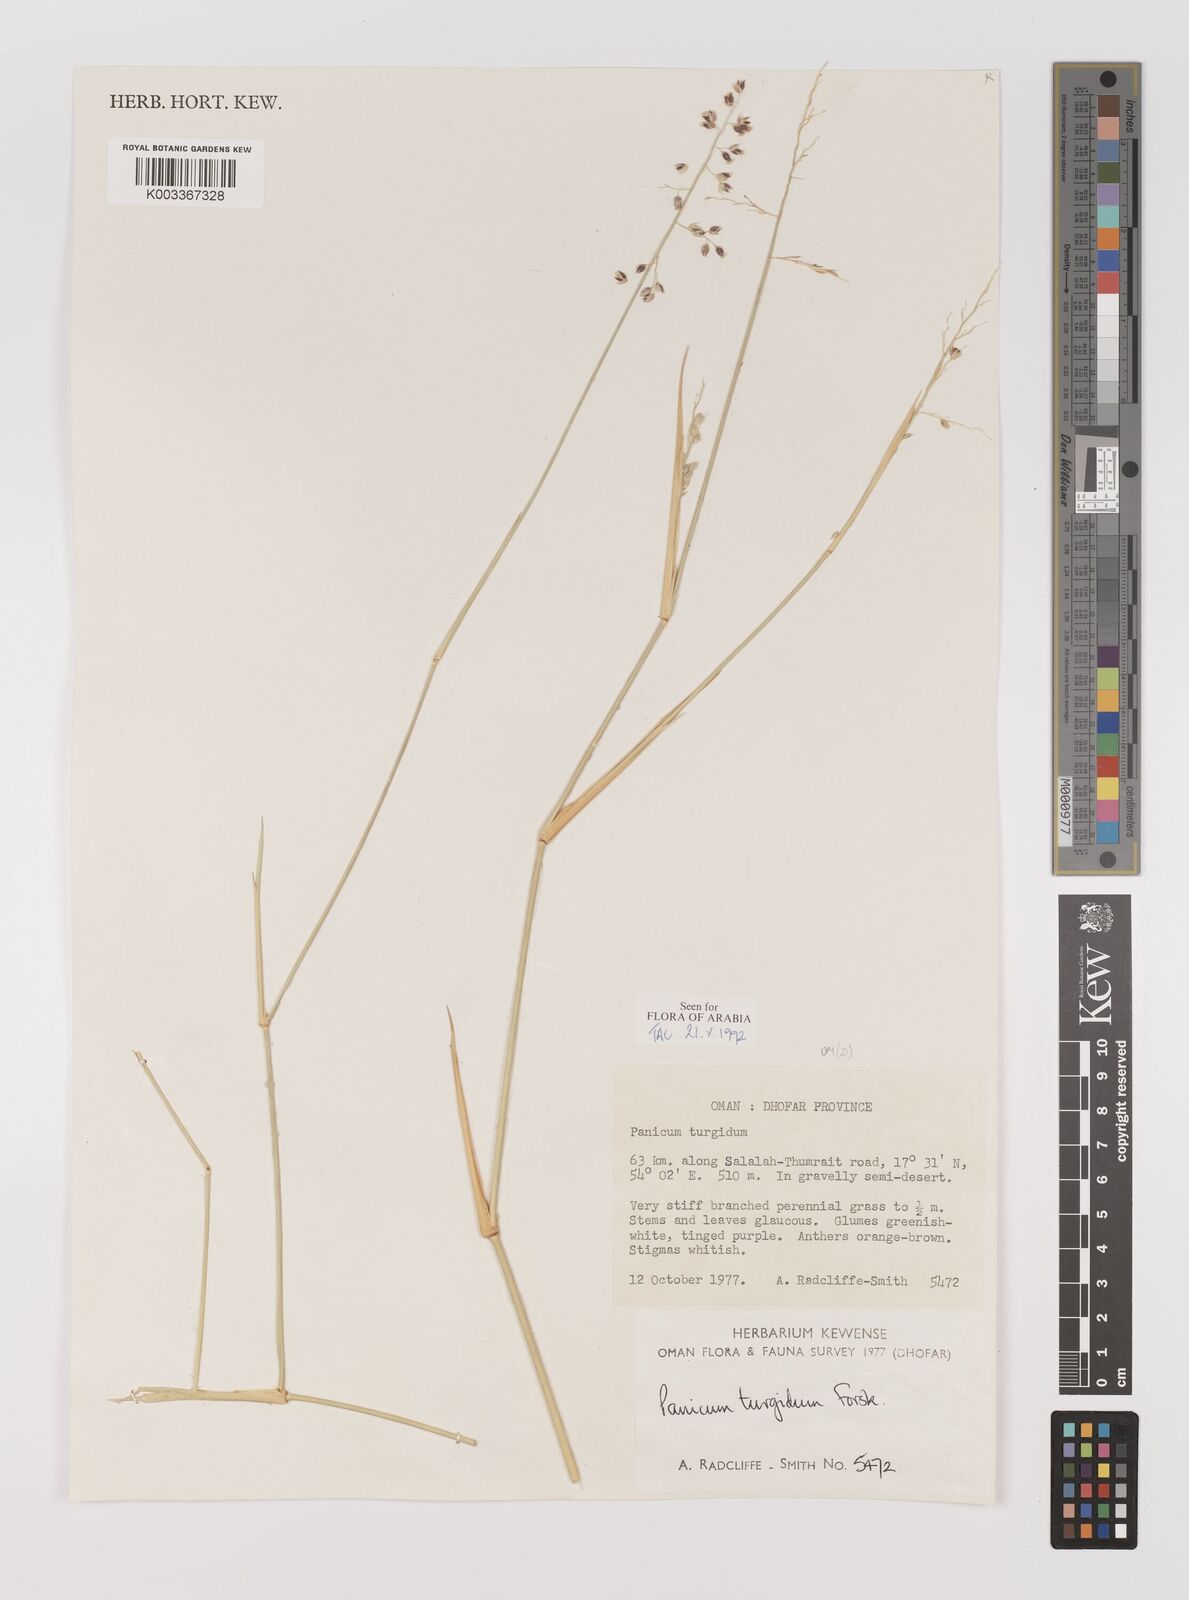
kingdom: Plantae
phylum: Tracheophyta
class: Liliopsida
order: Poales
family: Poaceae
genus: Panicum
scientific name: Panicum turgidum
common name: Desert grass
